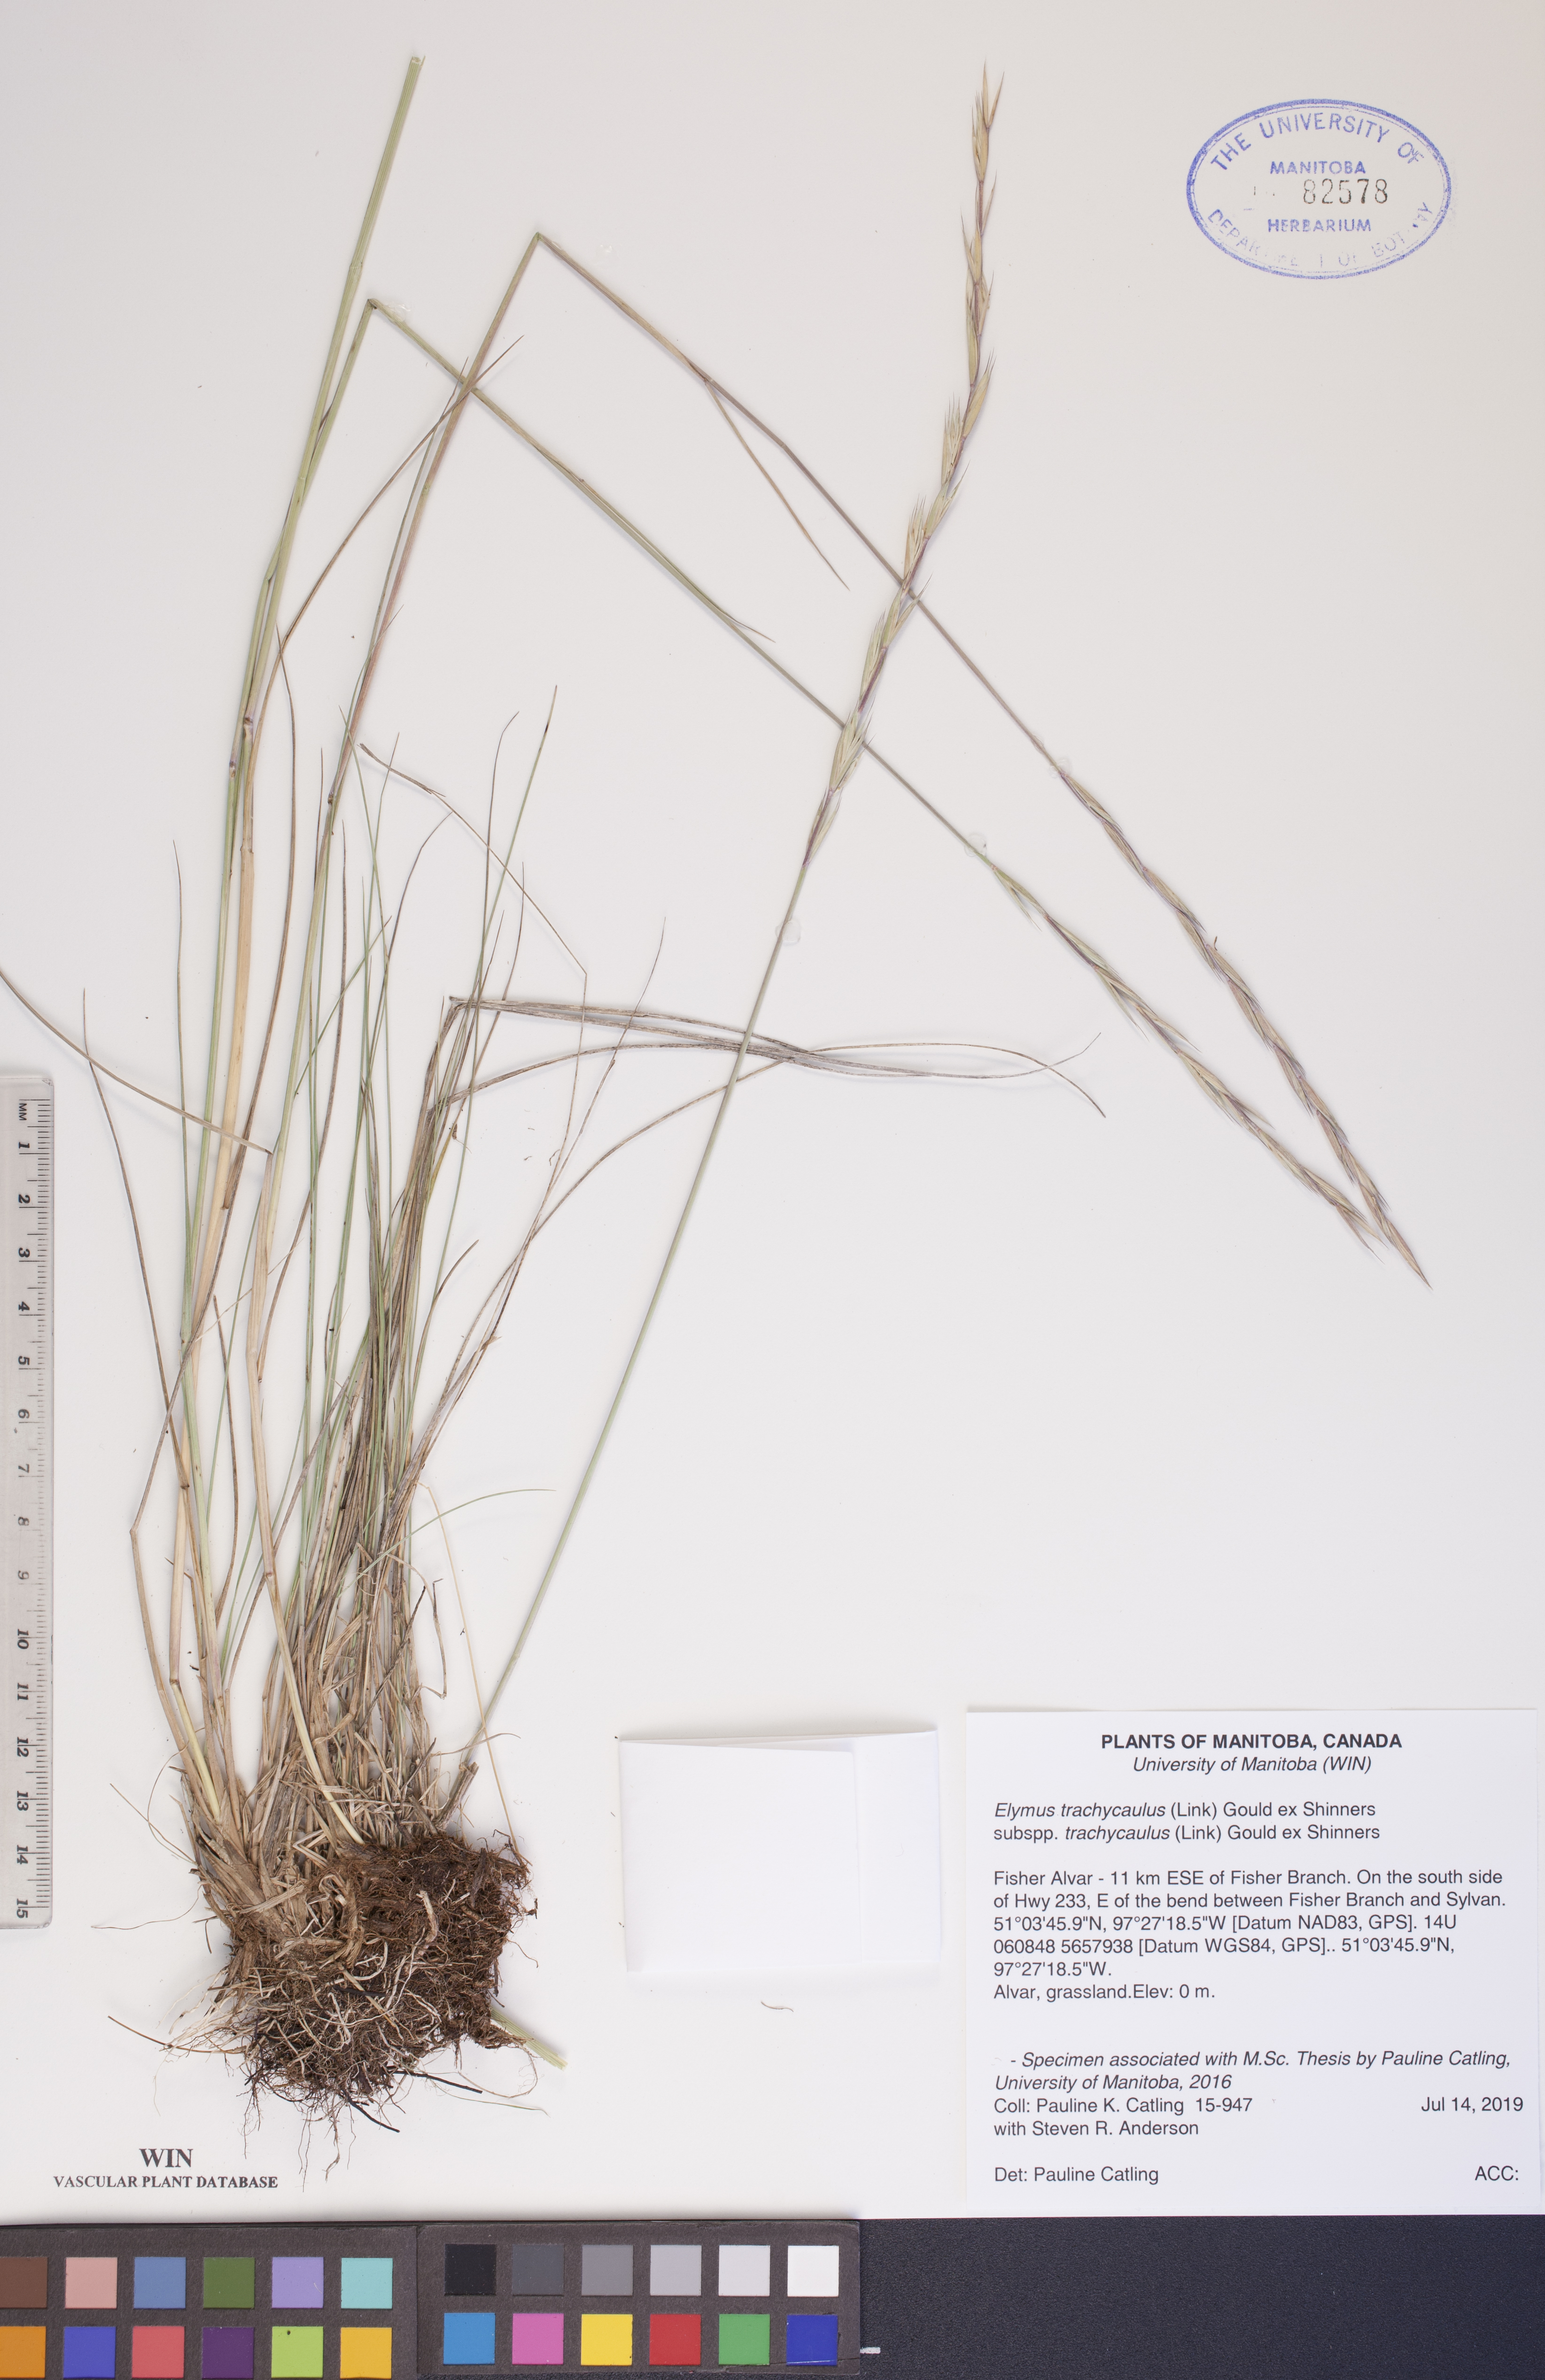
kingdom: Plantae
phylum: Tracheophyta
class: Liliopsida
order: Poales
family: Poaceae
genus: Elymus
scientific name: Elymus violaceus
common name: Arctic wheatgrass
